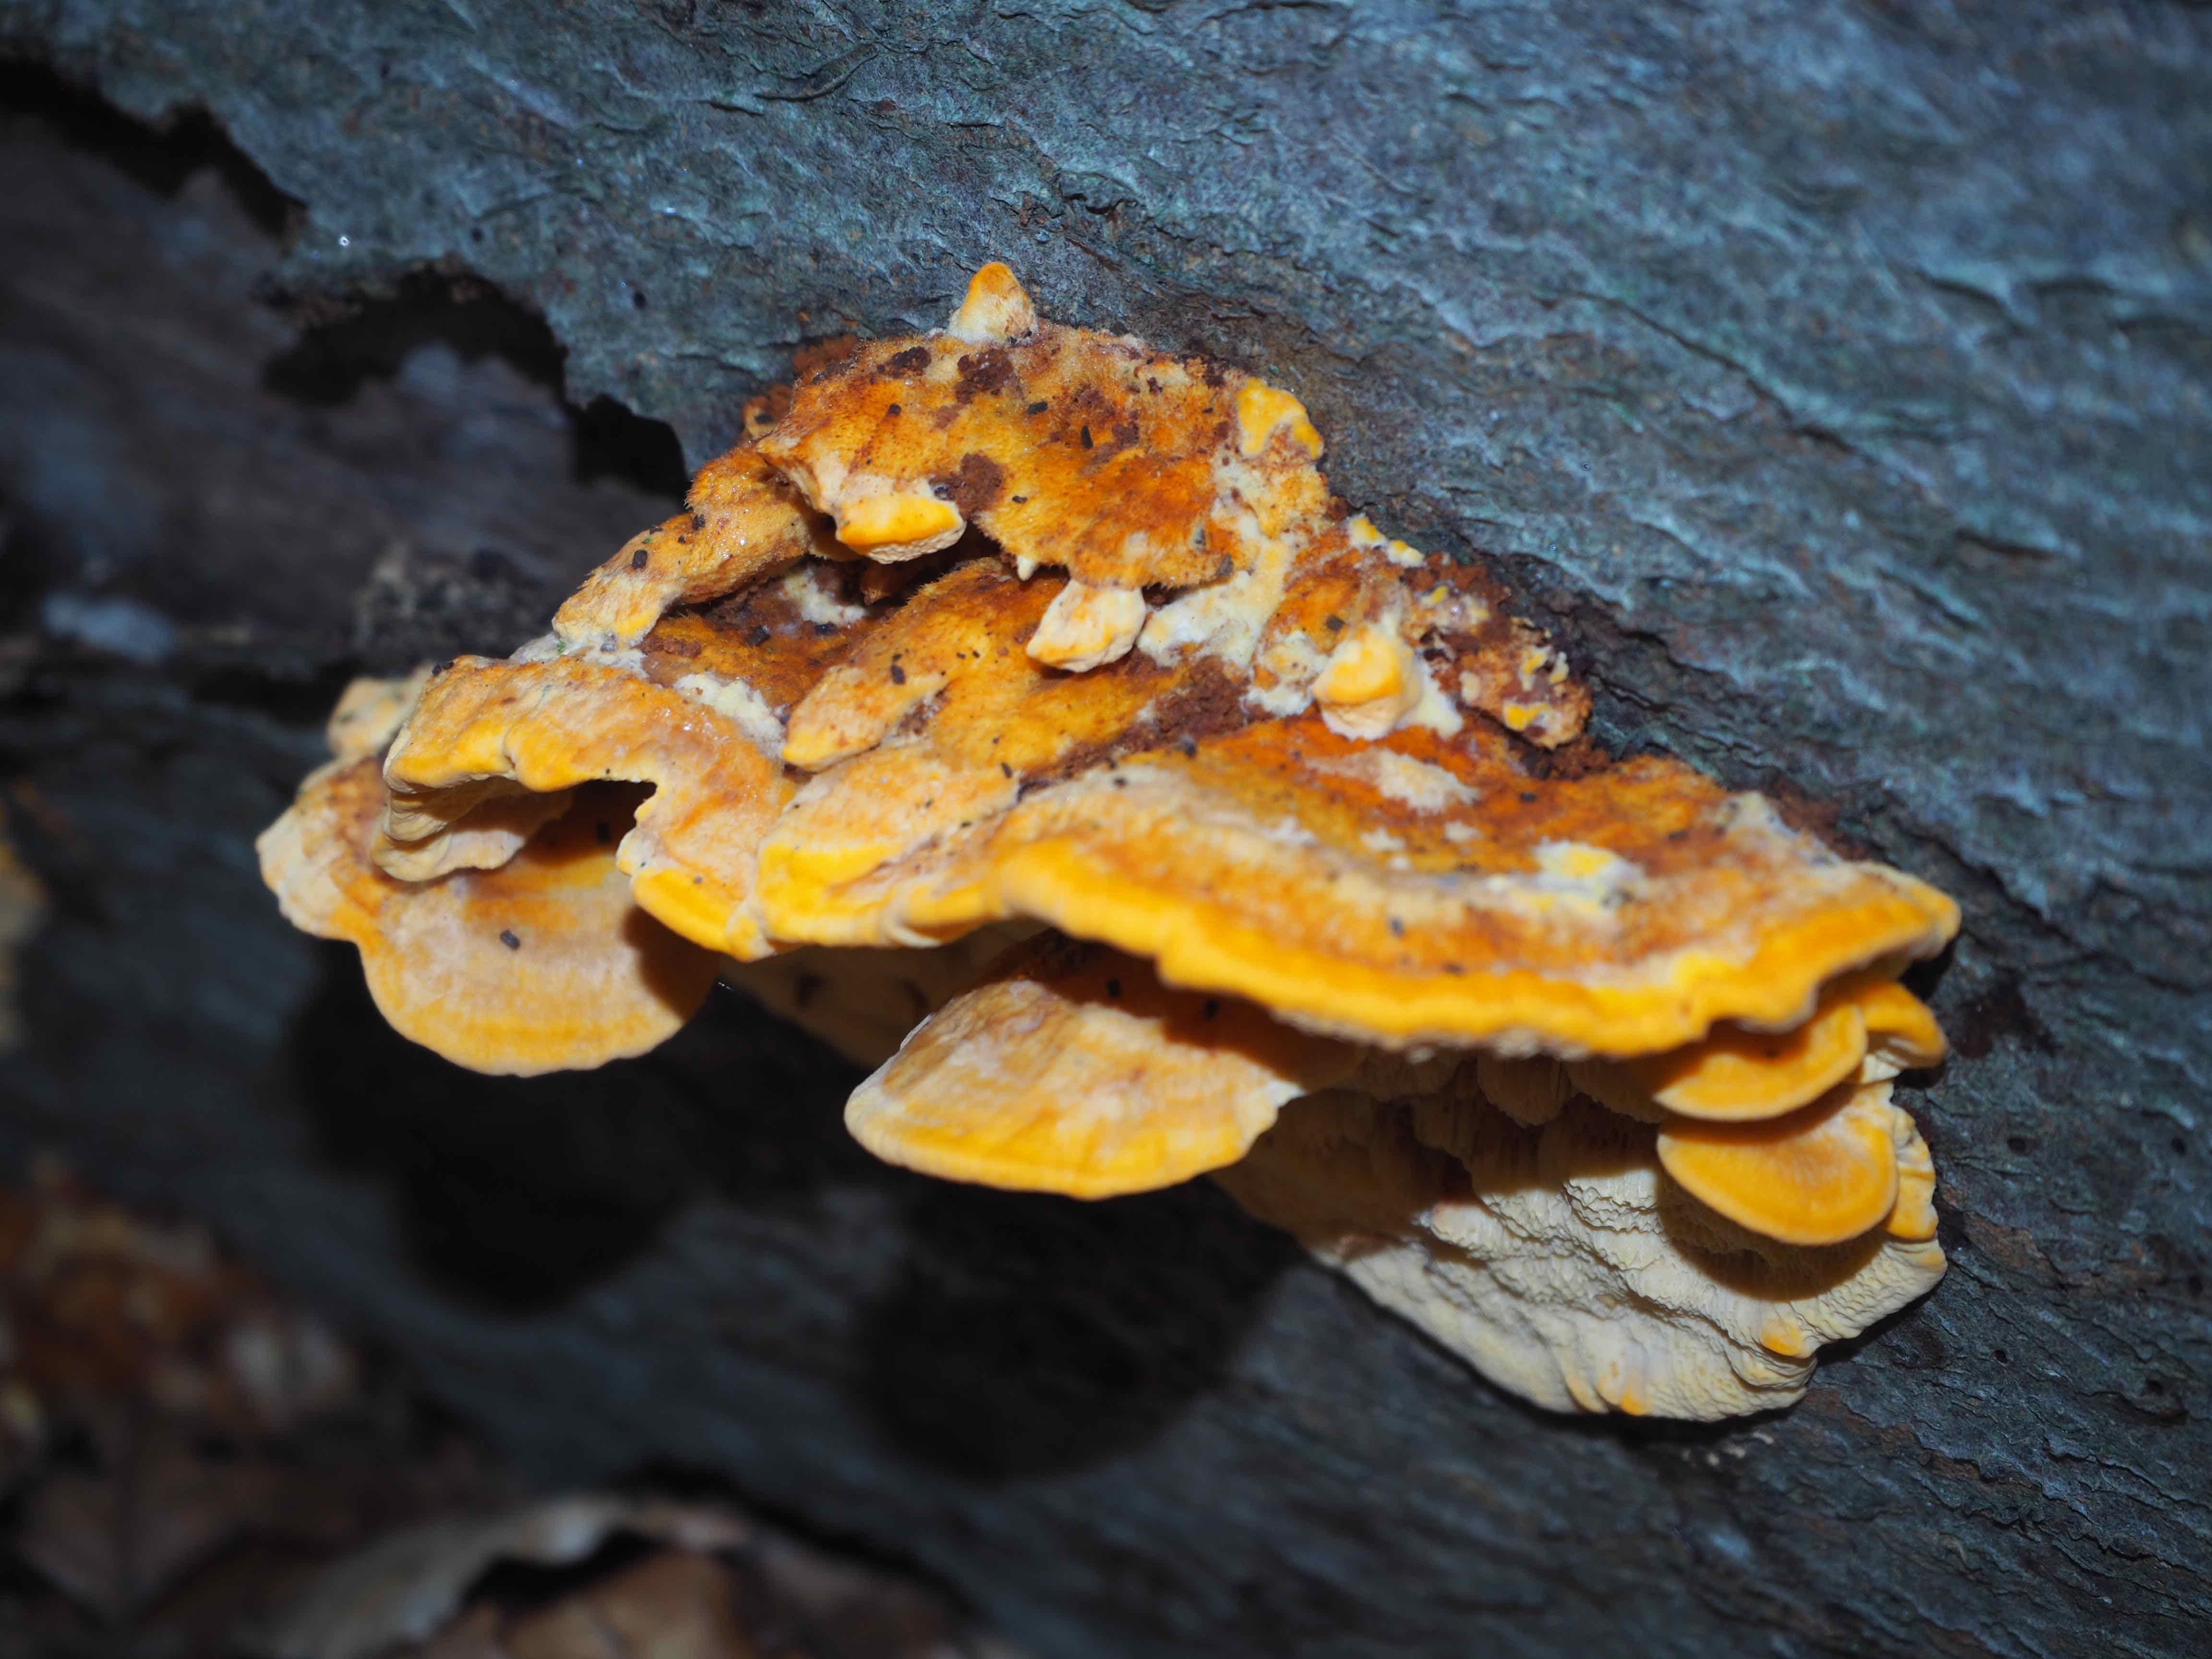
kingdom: Fungi
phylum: Basidiomycota
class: Agaricomycetes
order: Polyporales
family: Pycnoporellaceae
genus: Pycnoporellus
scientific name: Pycnoporellus fulgens
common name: flammeporesvamp
